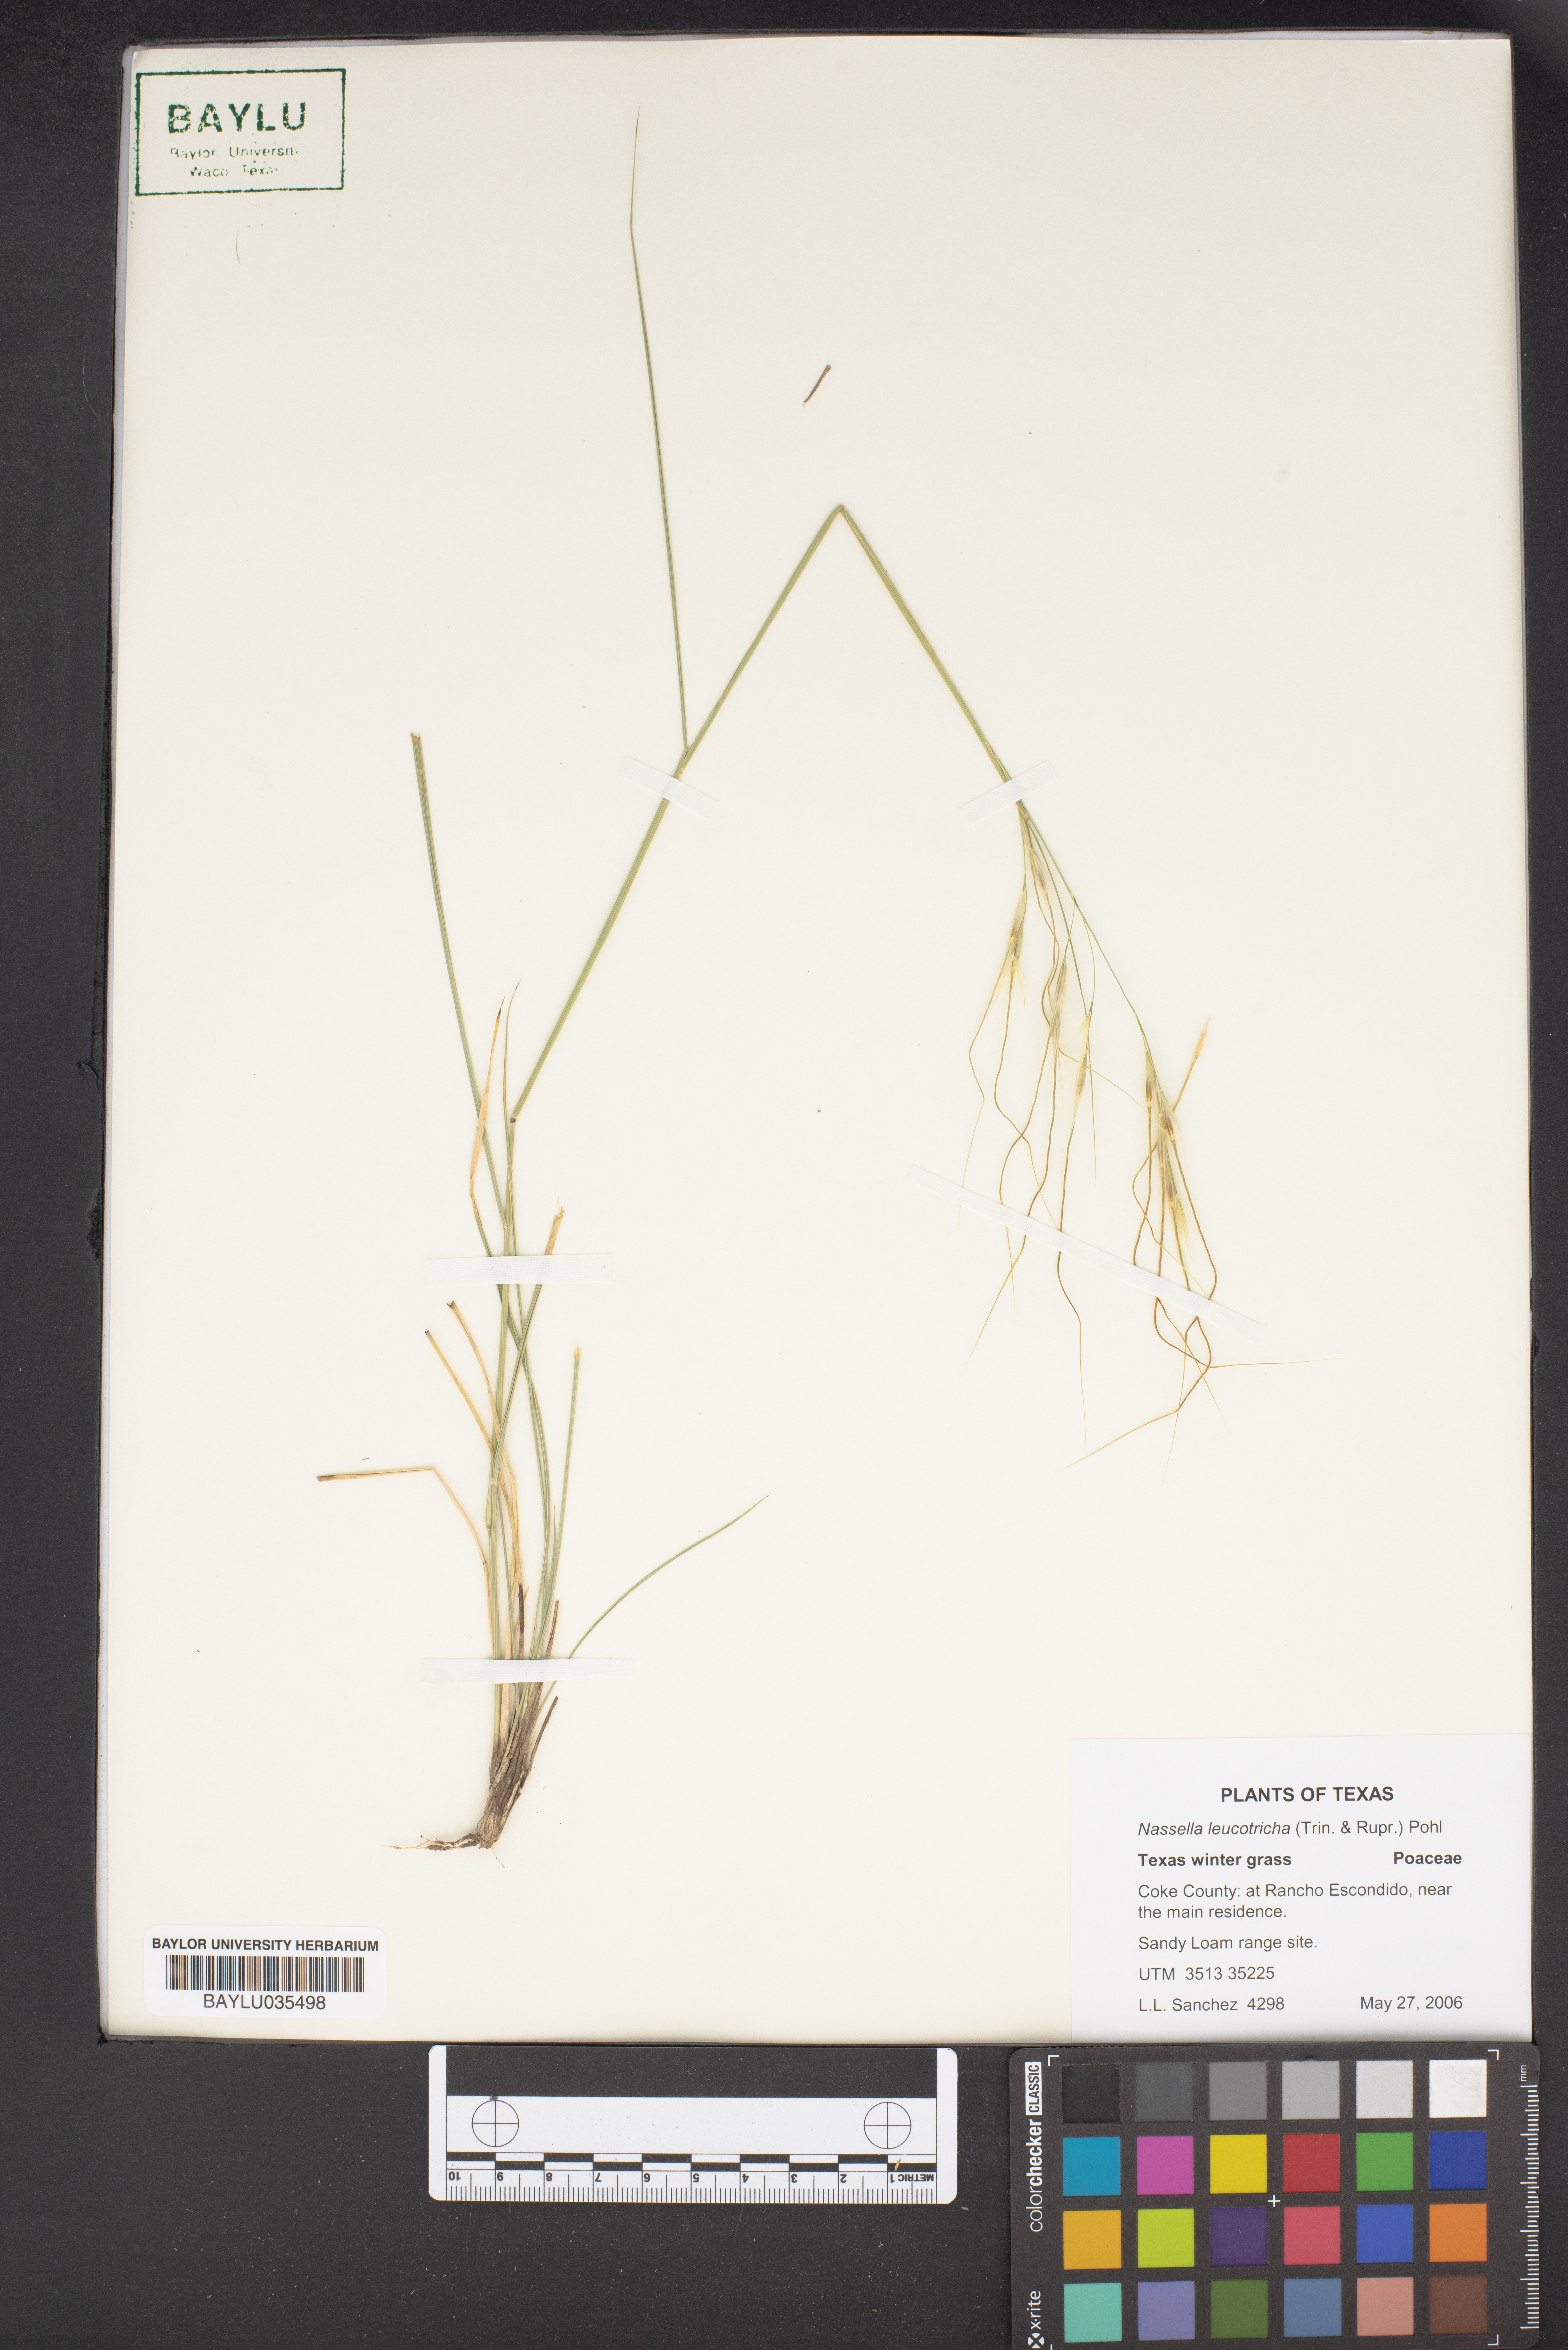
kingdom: Plantae
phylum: Tracheophyta
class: Liliopsida
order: Poales
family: Poaceae
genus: Nassella
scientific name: Nassella leucotricha
